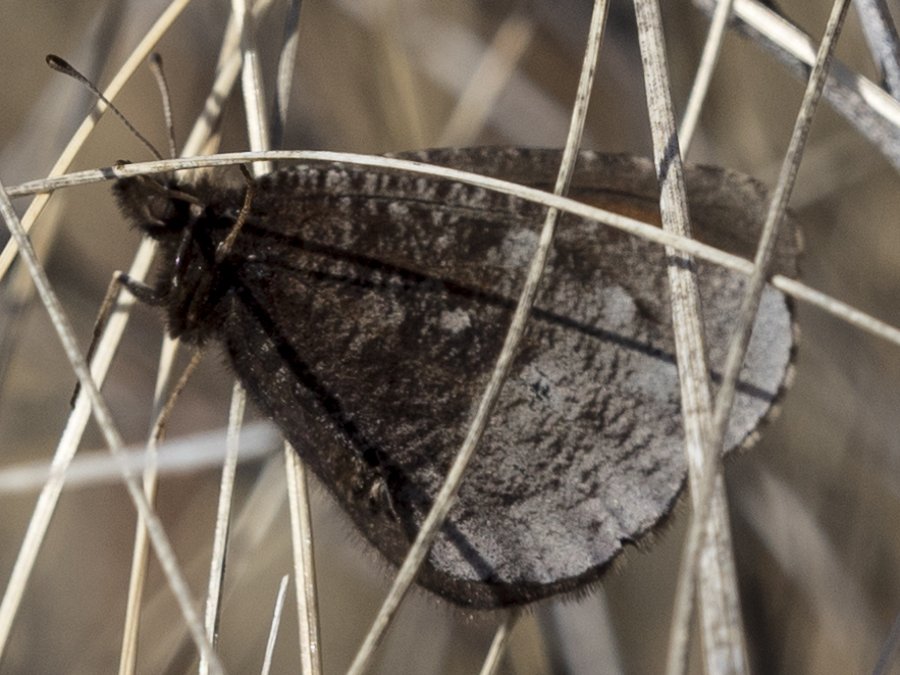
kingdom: Animalia
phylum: Arthropoda
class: Insecta
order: Lepidoptera
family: Nymphalidae
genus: Erebia
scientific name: Erebia discoidalis
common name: Red-disked Alpine
